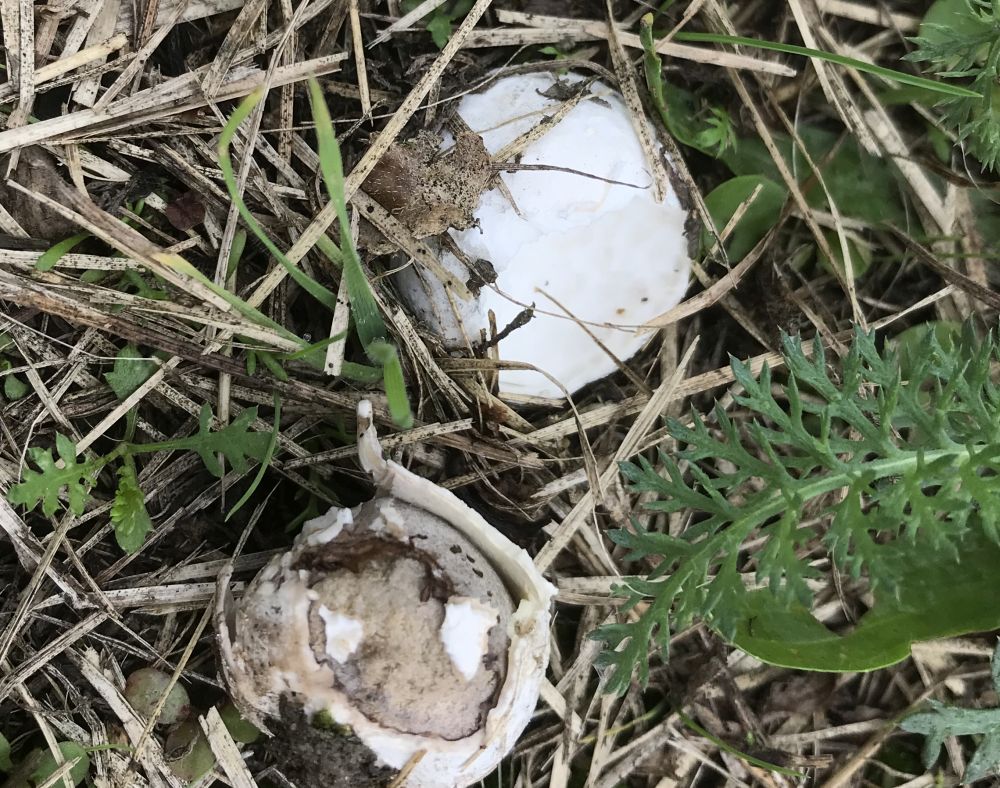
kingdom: Fungi
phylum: Basidiomycota
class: Agaricomycetes
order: Agaricales
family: Lycoperdaceae
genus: Bovista
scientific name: Bovista
